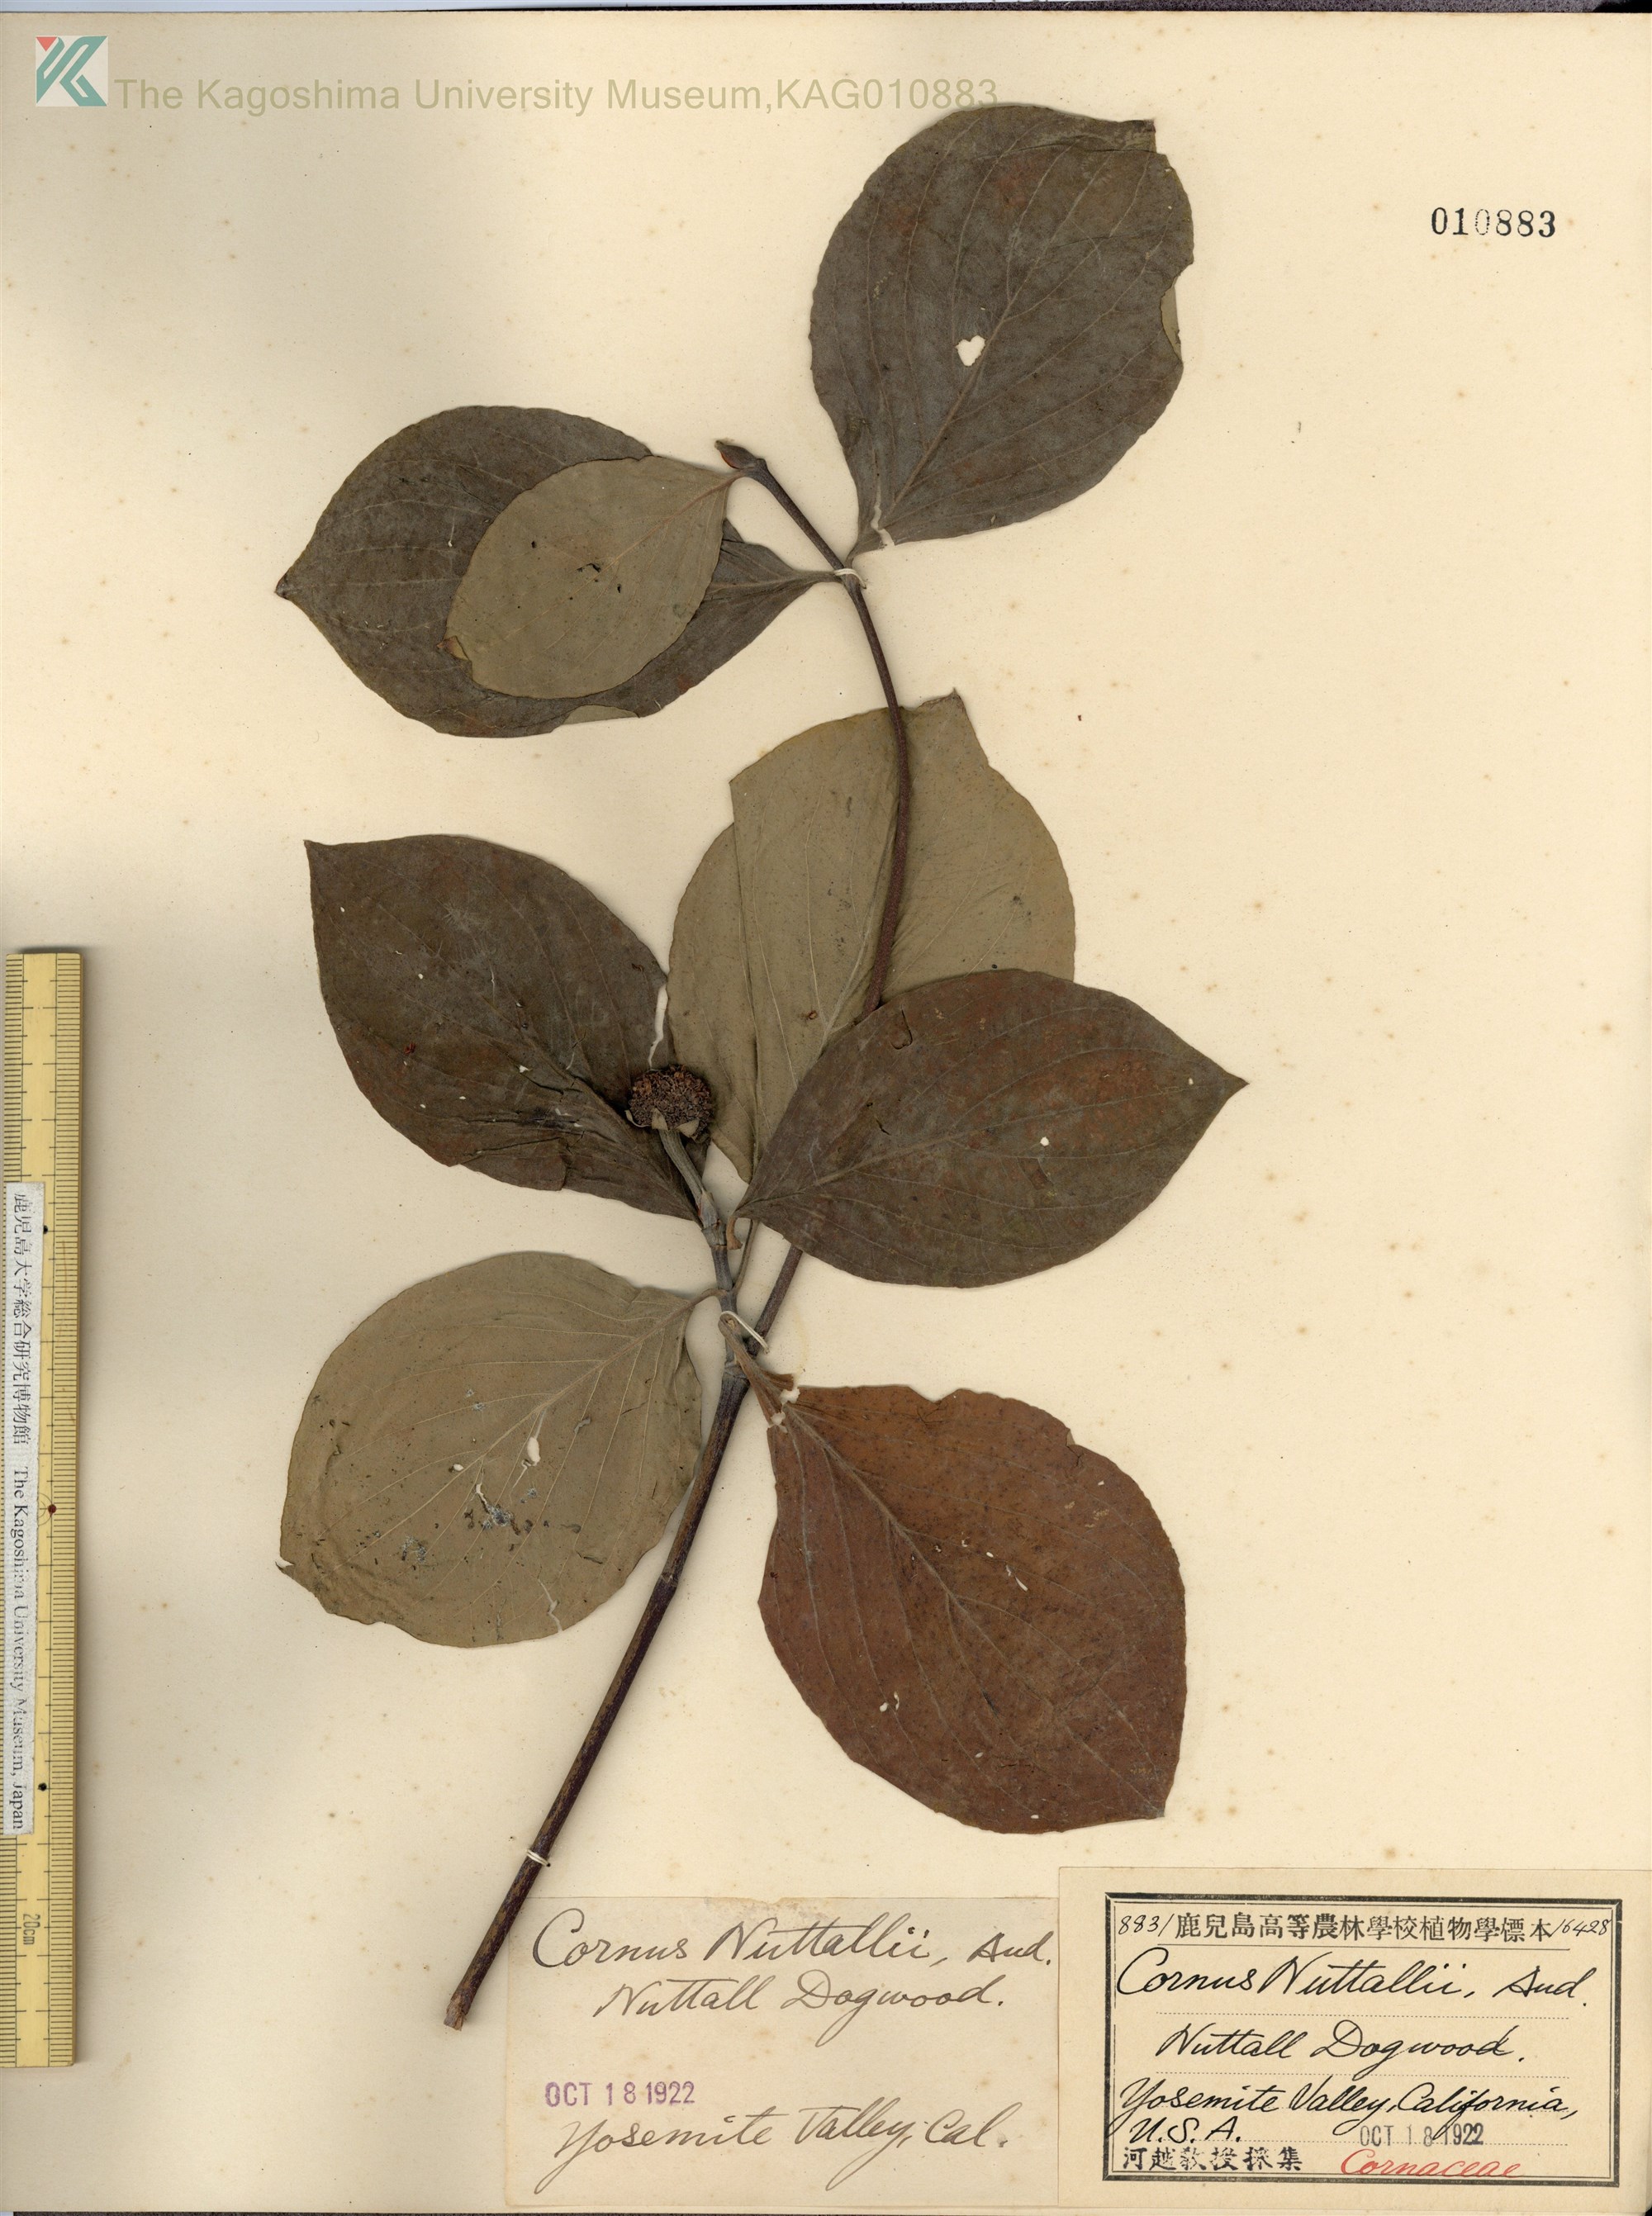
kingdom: Plantae
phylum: Tracheophyta
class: Magnoliopsida
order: Cornales
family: Cornaceae
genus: Cornus
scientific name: Cornus nuttallii
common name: Pacific dogwood
